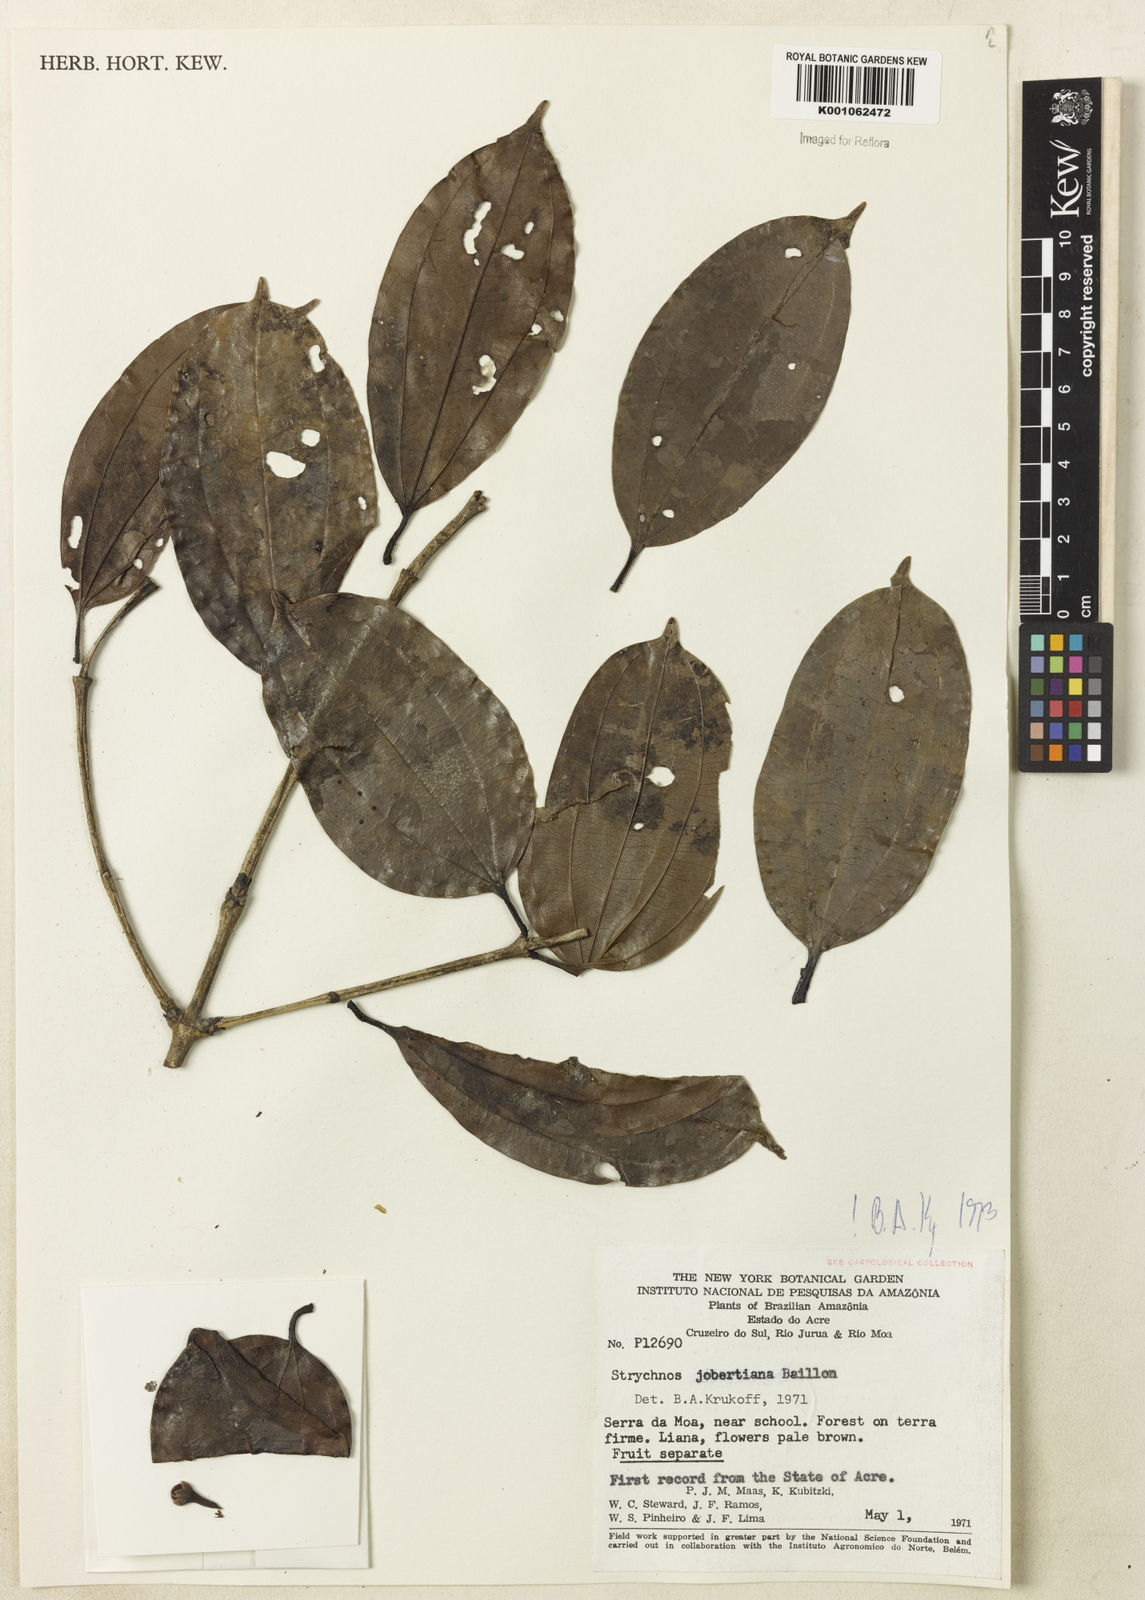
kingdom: Plantae
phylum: Tracheophyta
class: Magnoliopsida
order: Gentianales
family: Loganiaceae
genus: Strychnos
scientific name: Strychnos jobertiana
